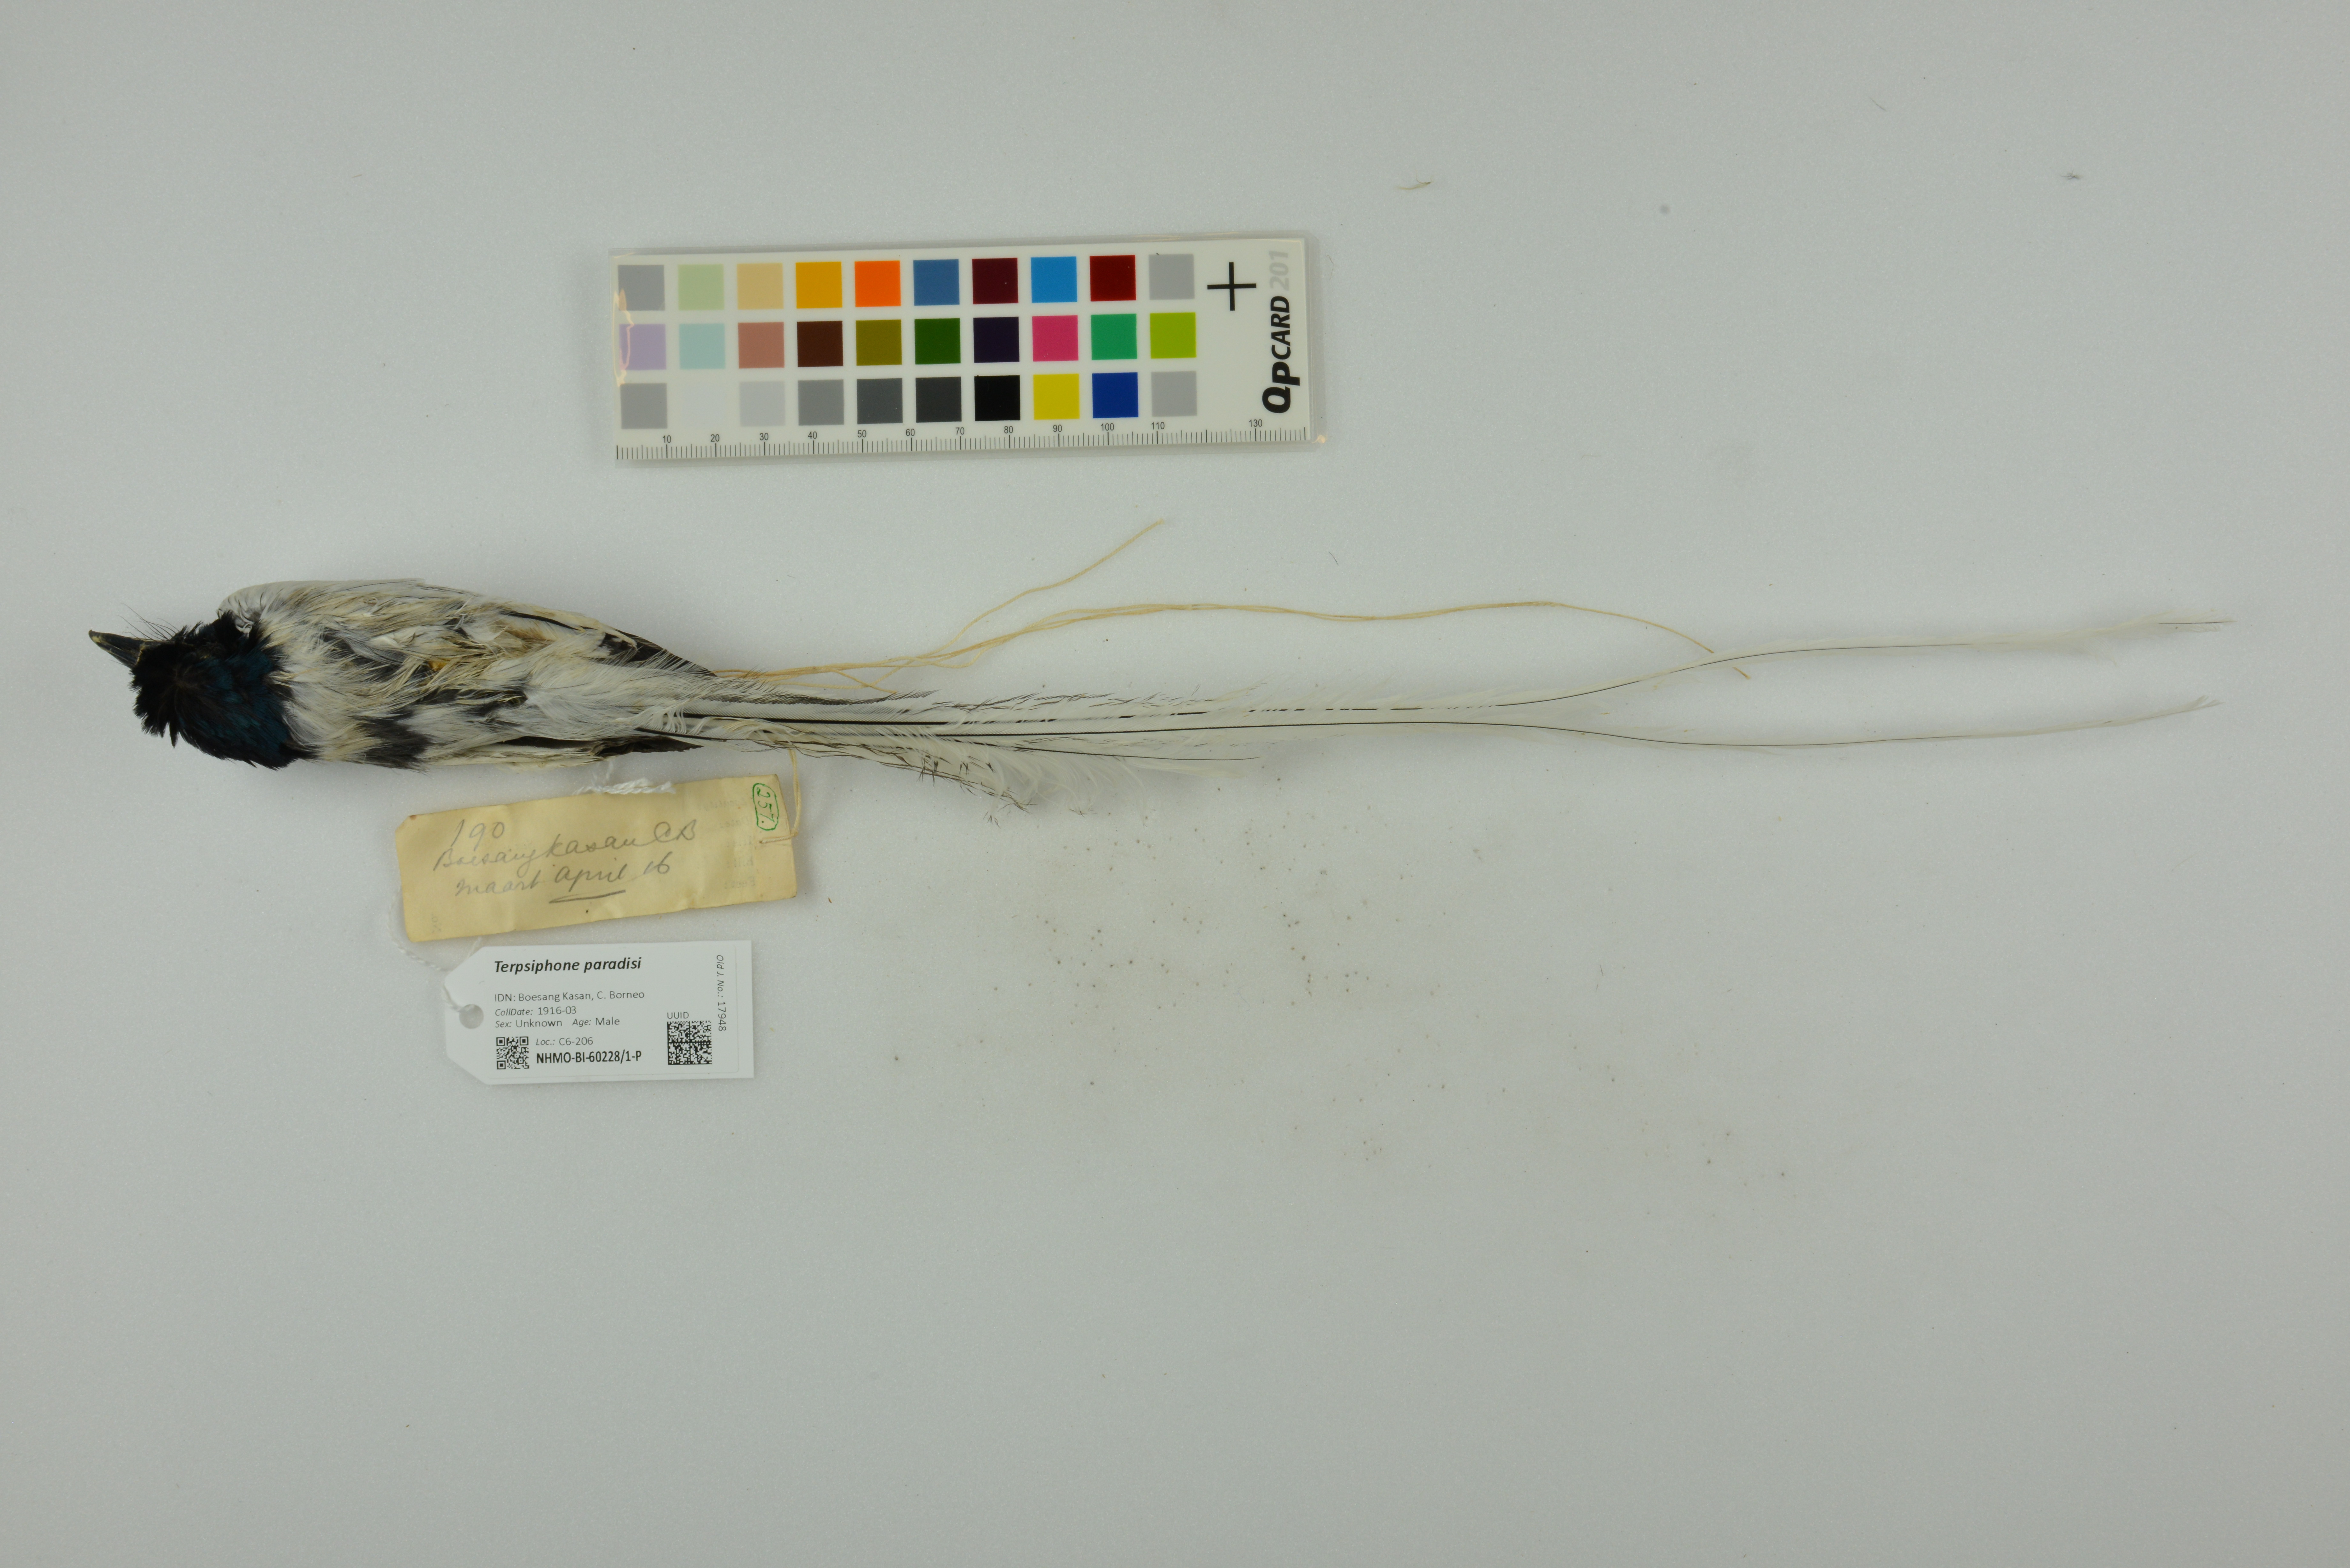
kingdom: Animalia
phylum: Chordata
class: Aves
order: Passeriformes
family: Monarchidae
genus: Terpsiphone
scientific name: Terpsiphone paradisi
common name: Indian paradise flycatcher
